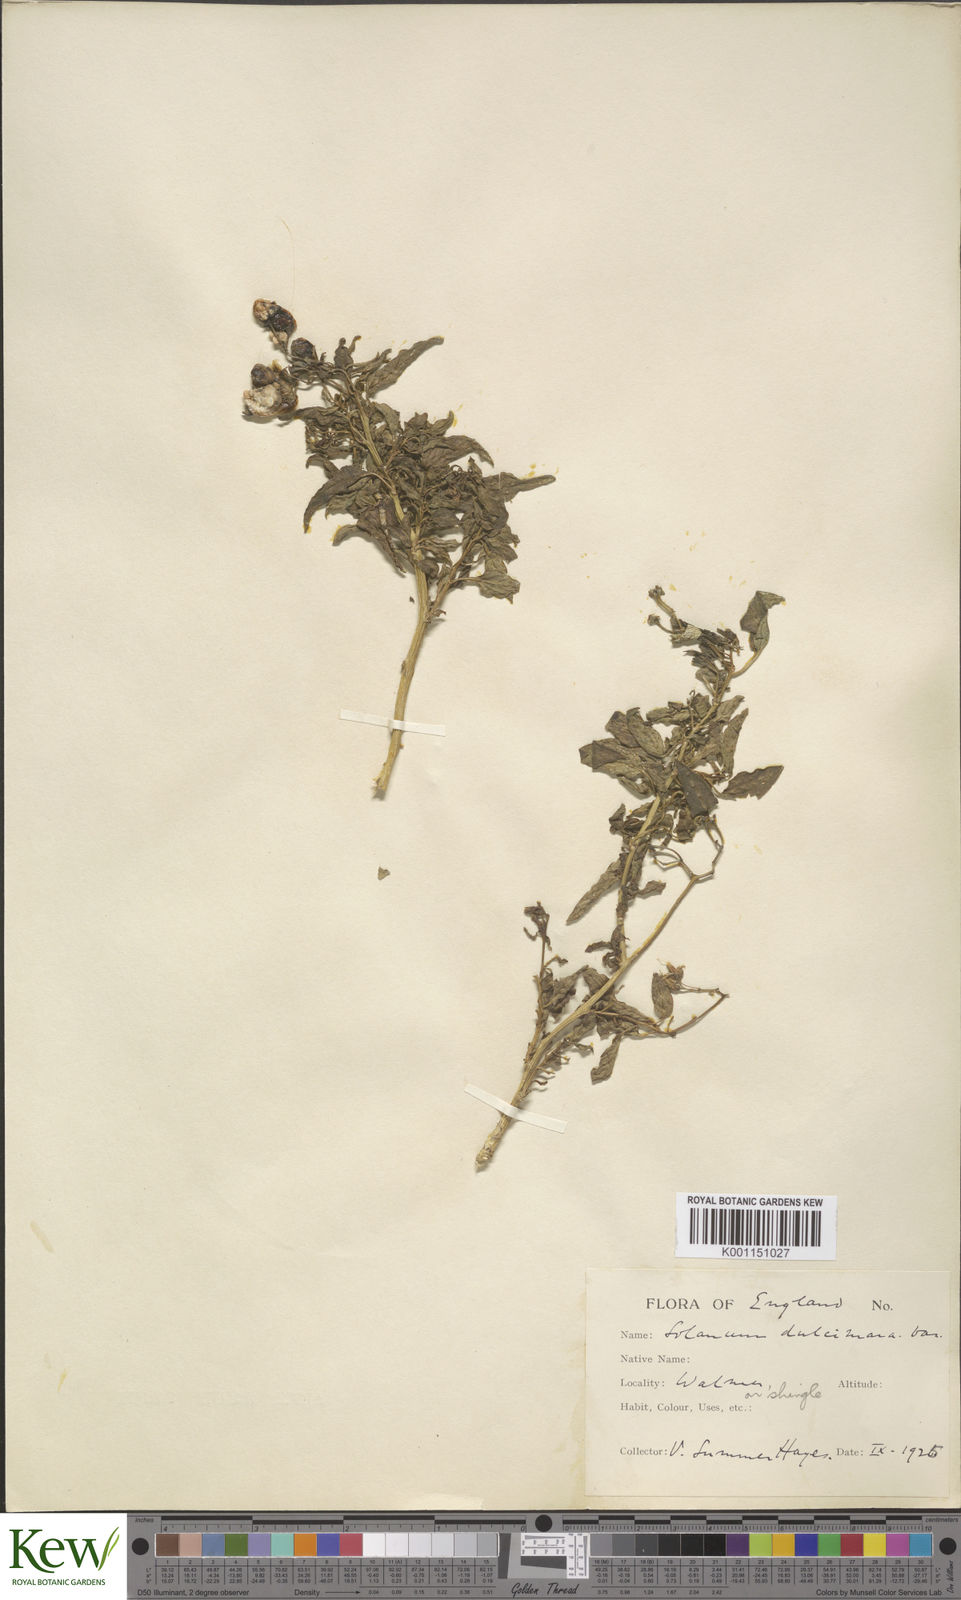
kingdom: Plantae
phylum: Tracheophyta
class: Magnoliopsida
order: Solanales
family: Solanaceae
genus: Solanum
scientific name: Solanum dulcamara
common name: Climbing nightshade
